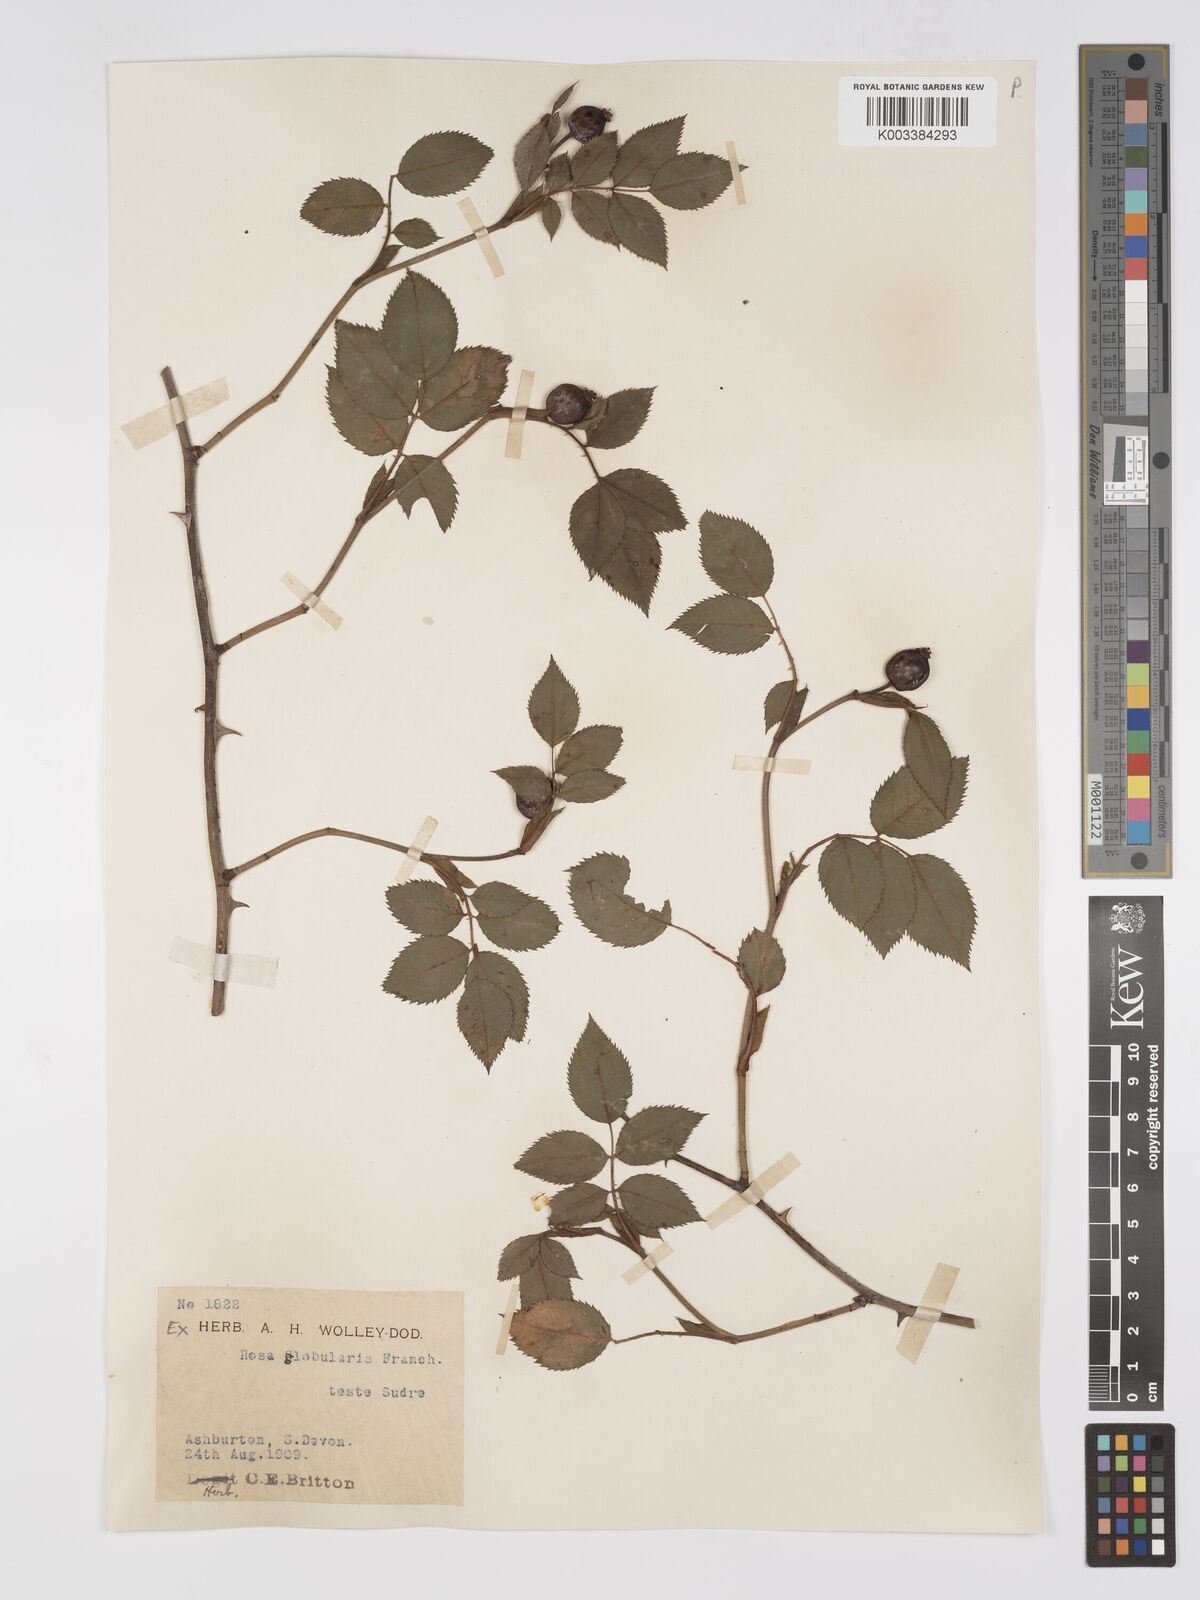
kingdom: Plantae
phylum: Tracheophyta
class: Magnoliopsida
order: Rosales
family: Rosaceae
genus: Rosa
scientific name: Rosa canina
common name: Dog rose
